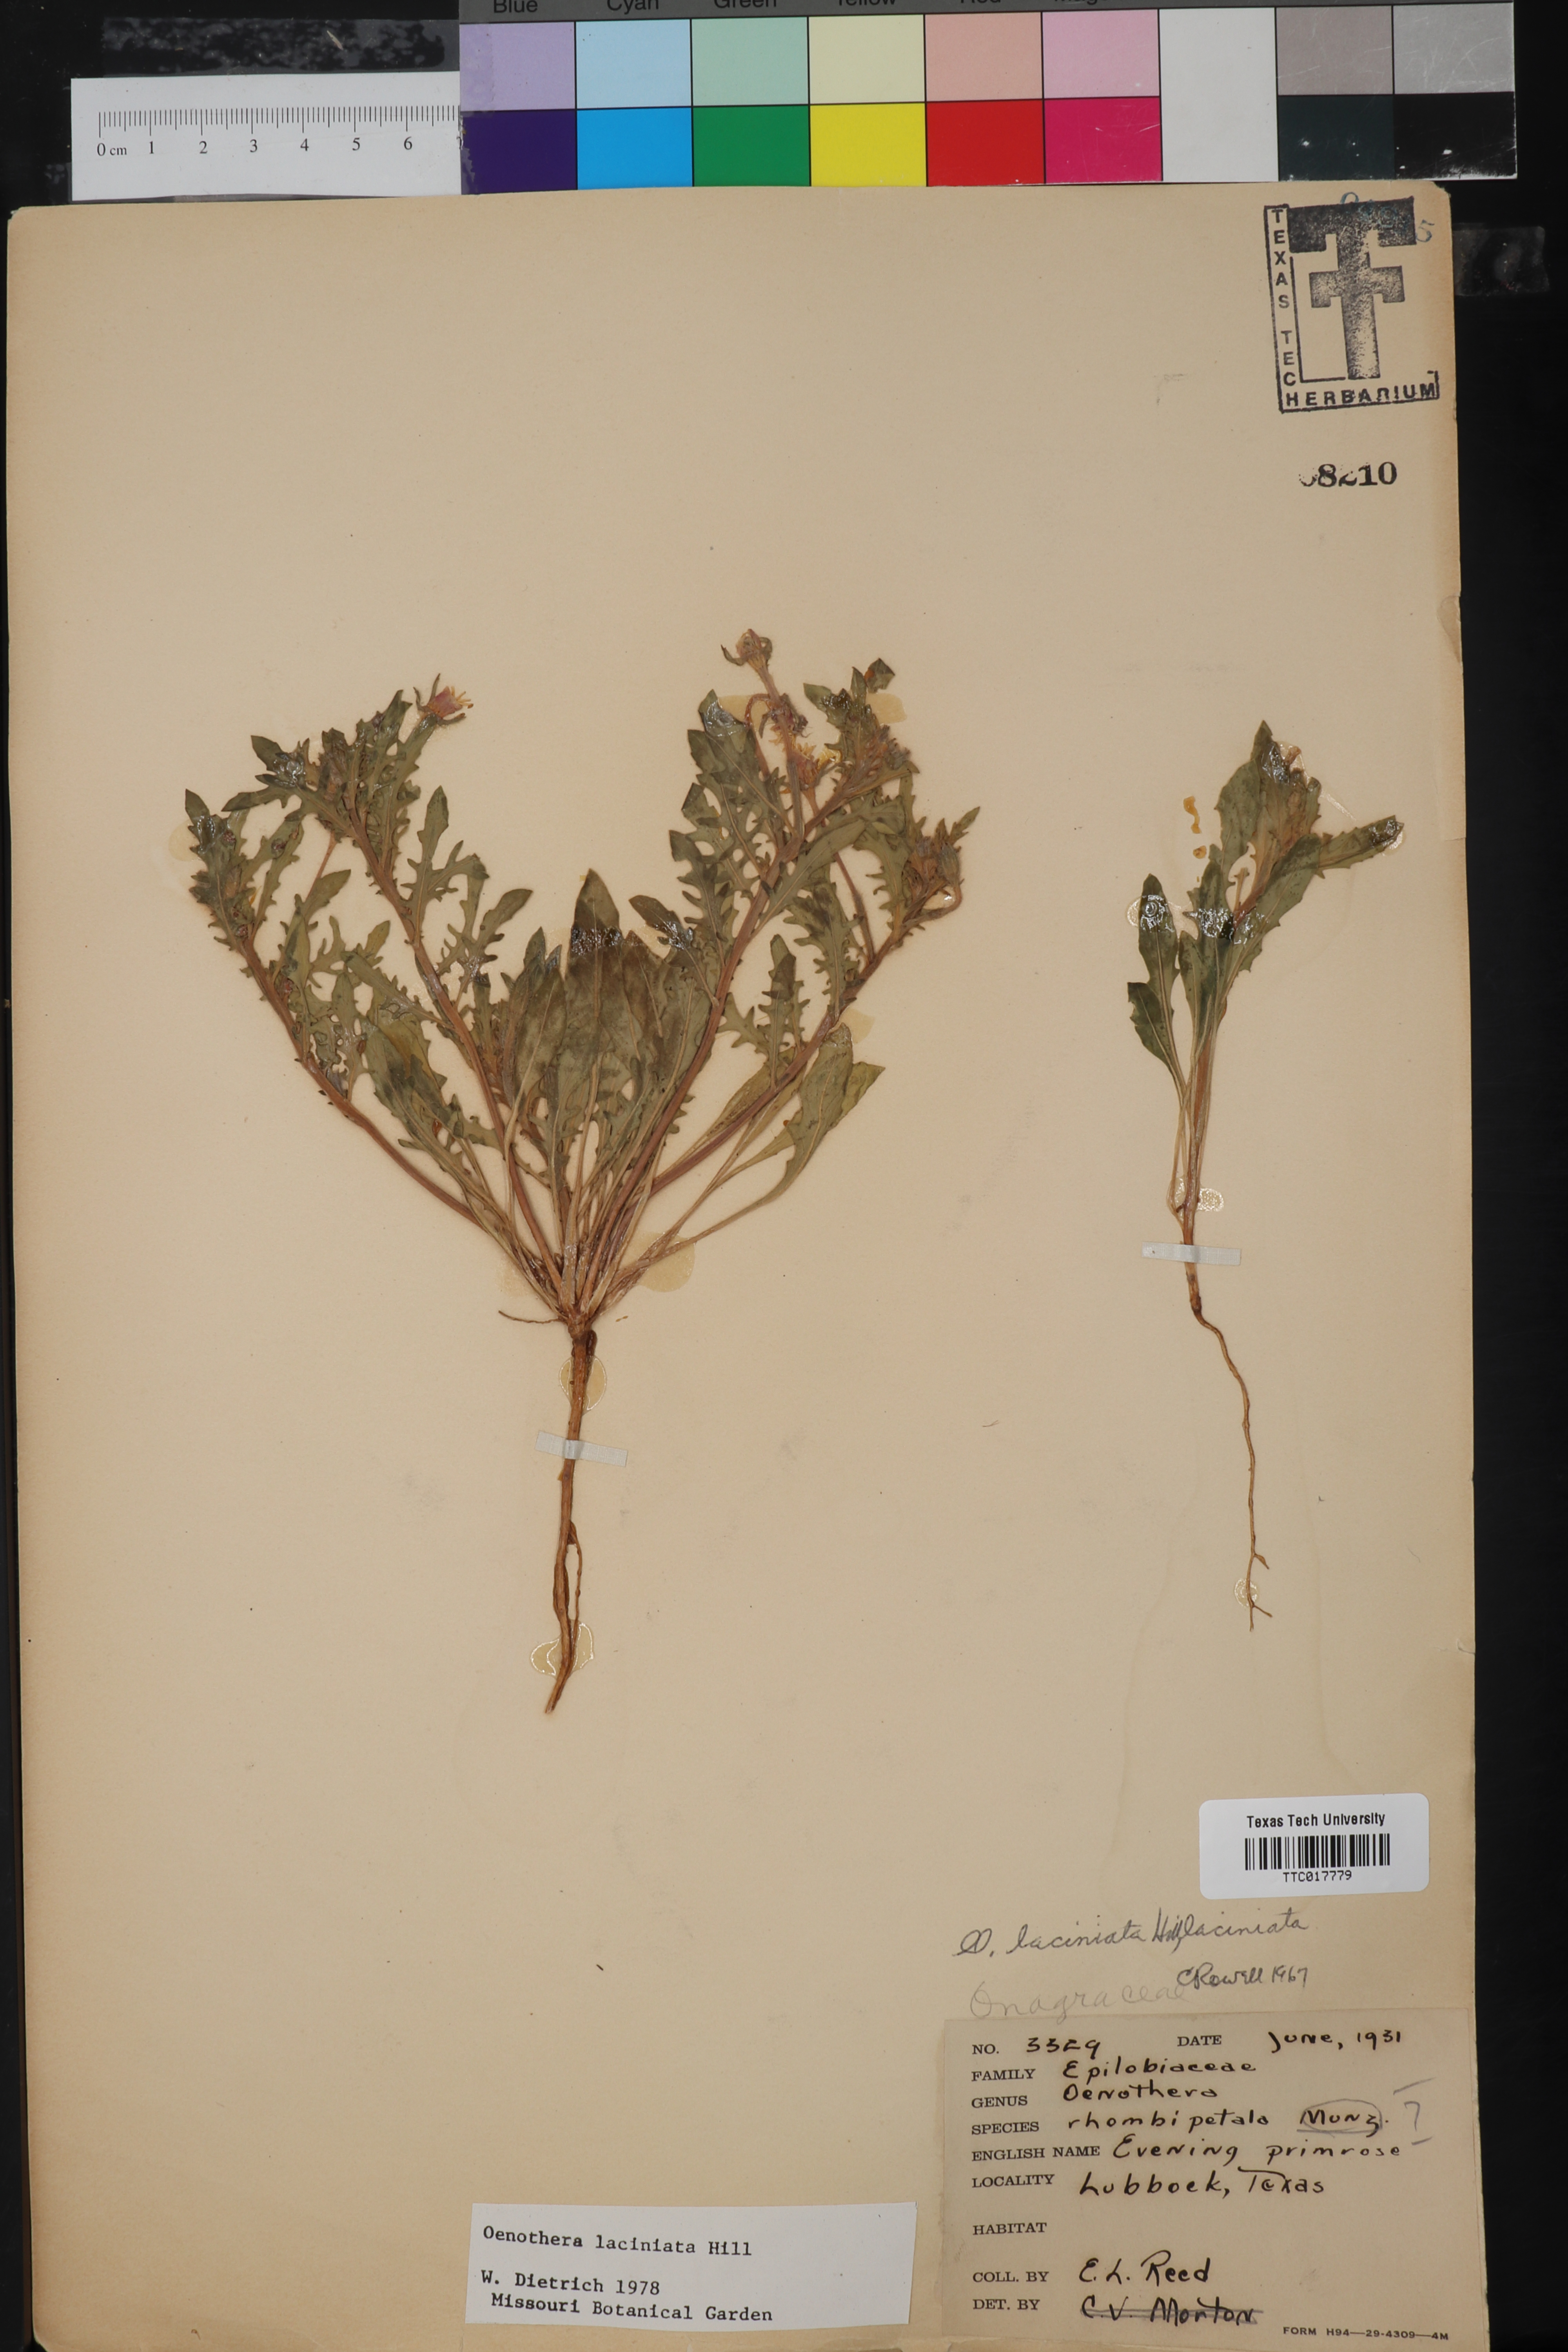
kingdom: Plantae
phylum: Tracheophyta
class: Magnoliopsida
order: Myrtales
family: Onagraceae
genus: Oenothera
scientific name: Oenothera laciniata
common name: Cut-leaved evening-primrose
